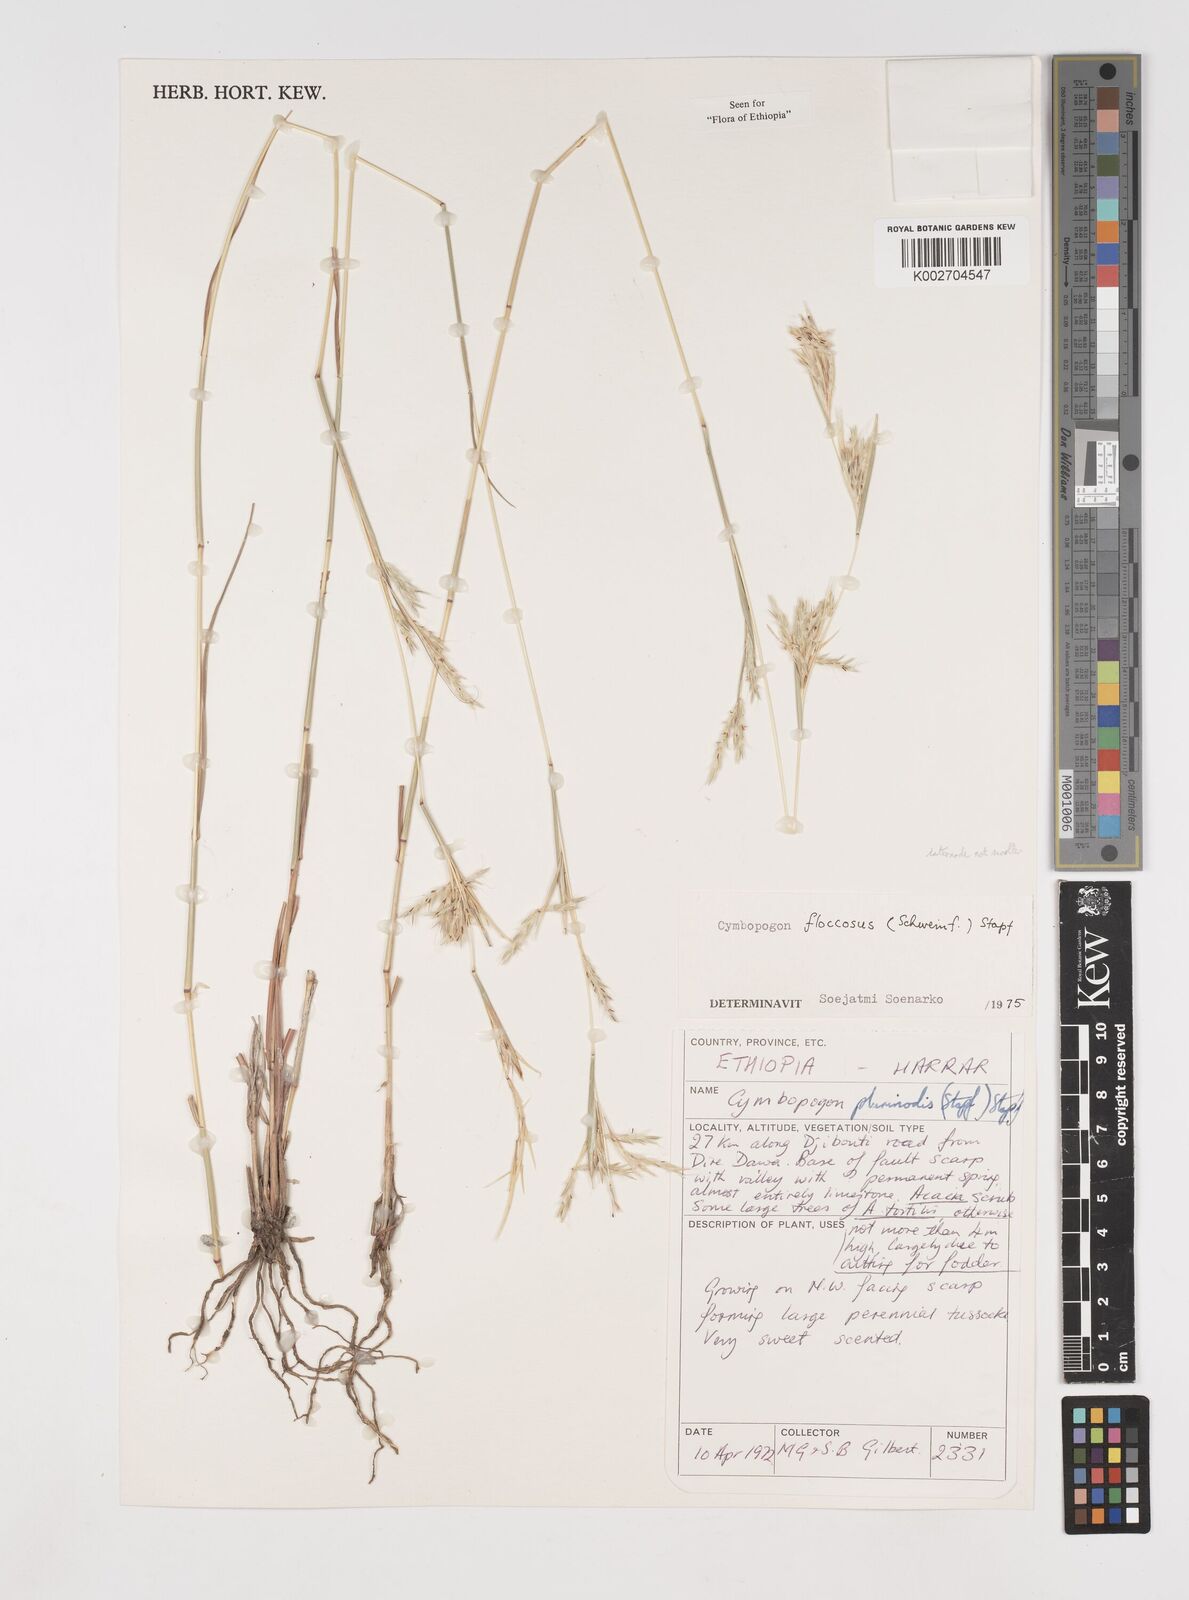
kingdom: Plantae
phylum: Tracheophyta
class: Liliopsida
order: Poales
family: Poaceae
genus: Cymbopogon
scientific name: Cymbopogon
